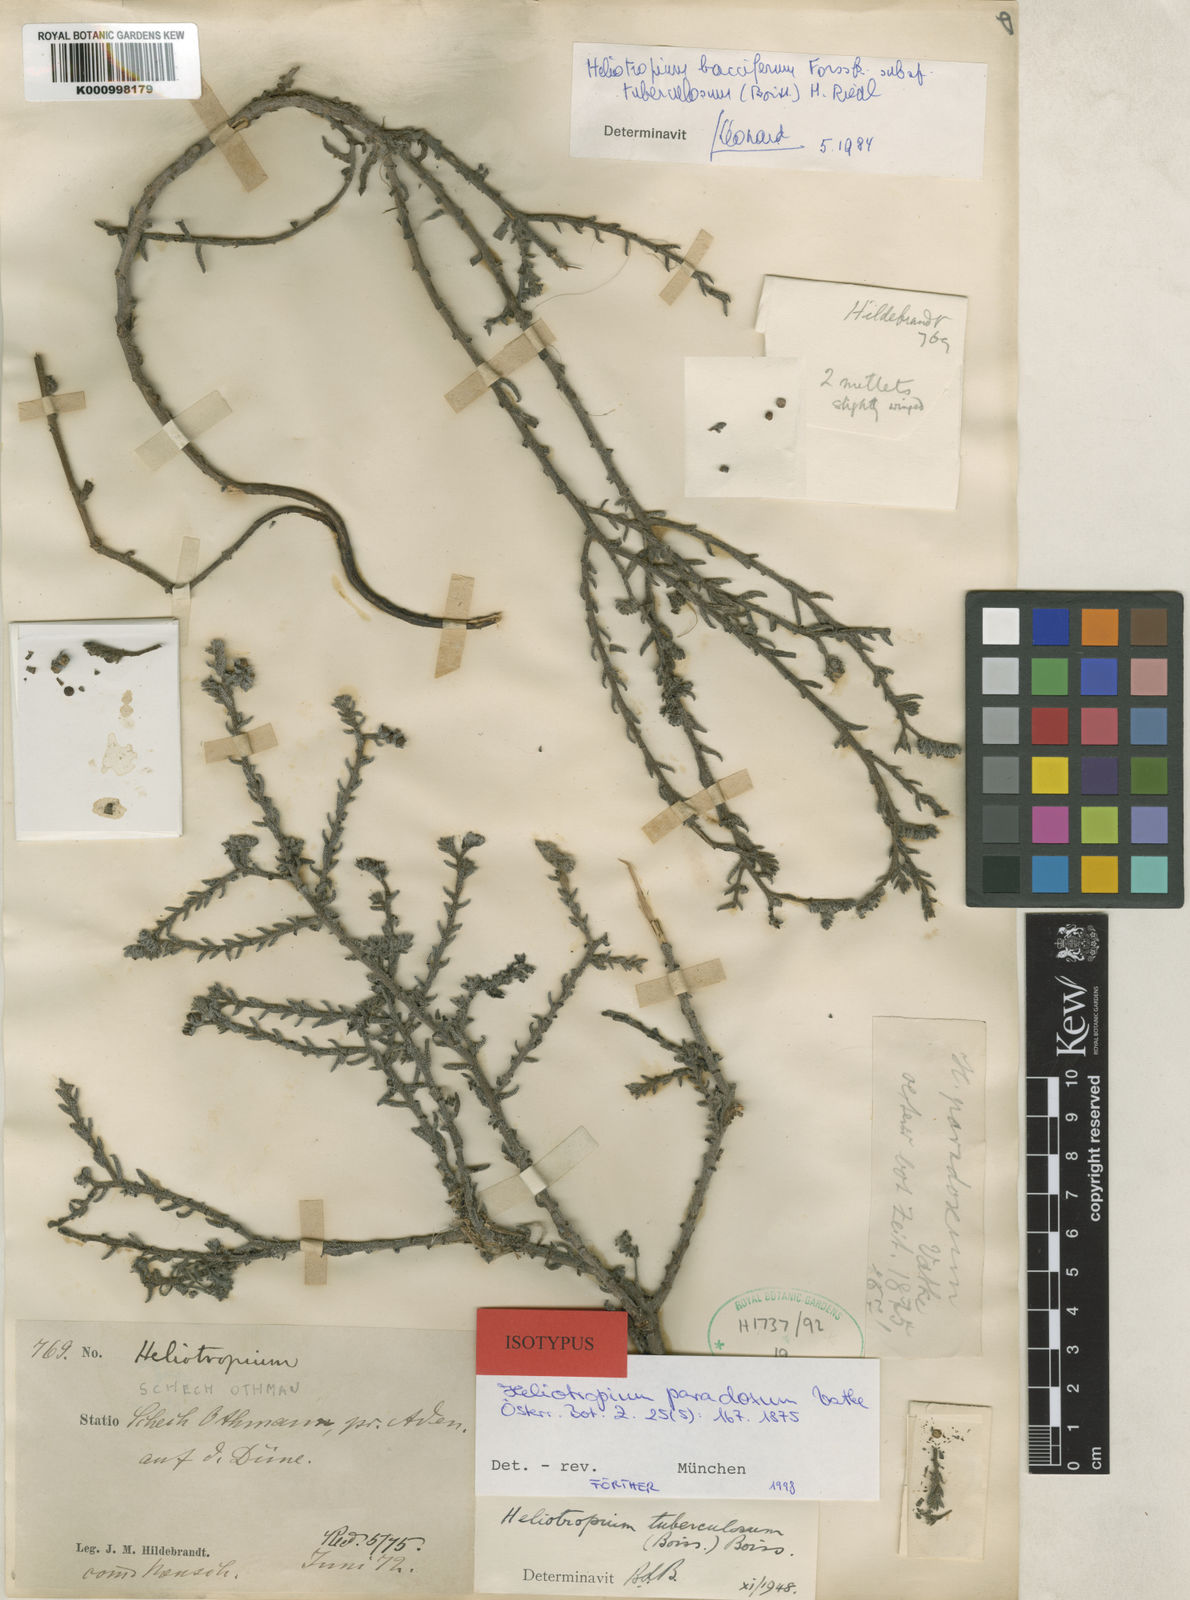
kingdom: Plantae
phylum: Tracheophyta
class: Magnoliopsida
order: Boraginales
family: Heliotropiaceae
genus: Heliotropium
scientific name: Heliotropium bacciferum
